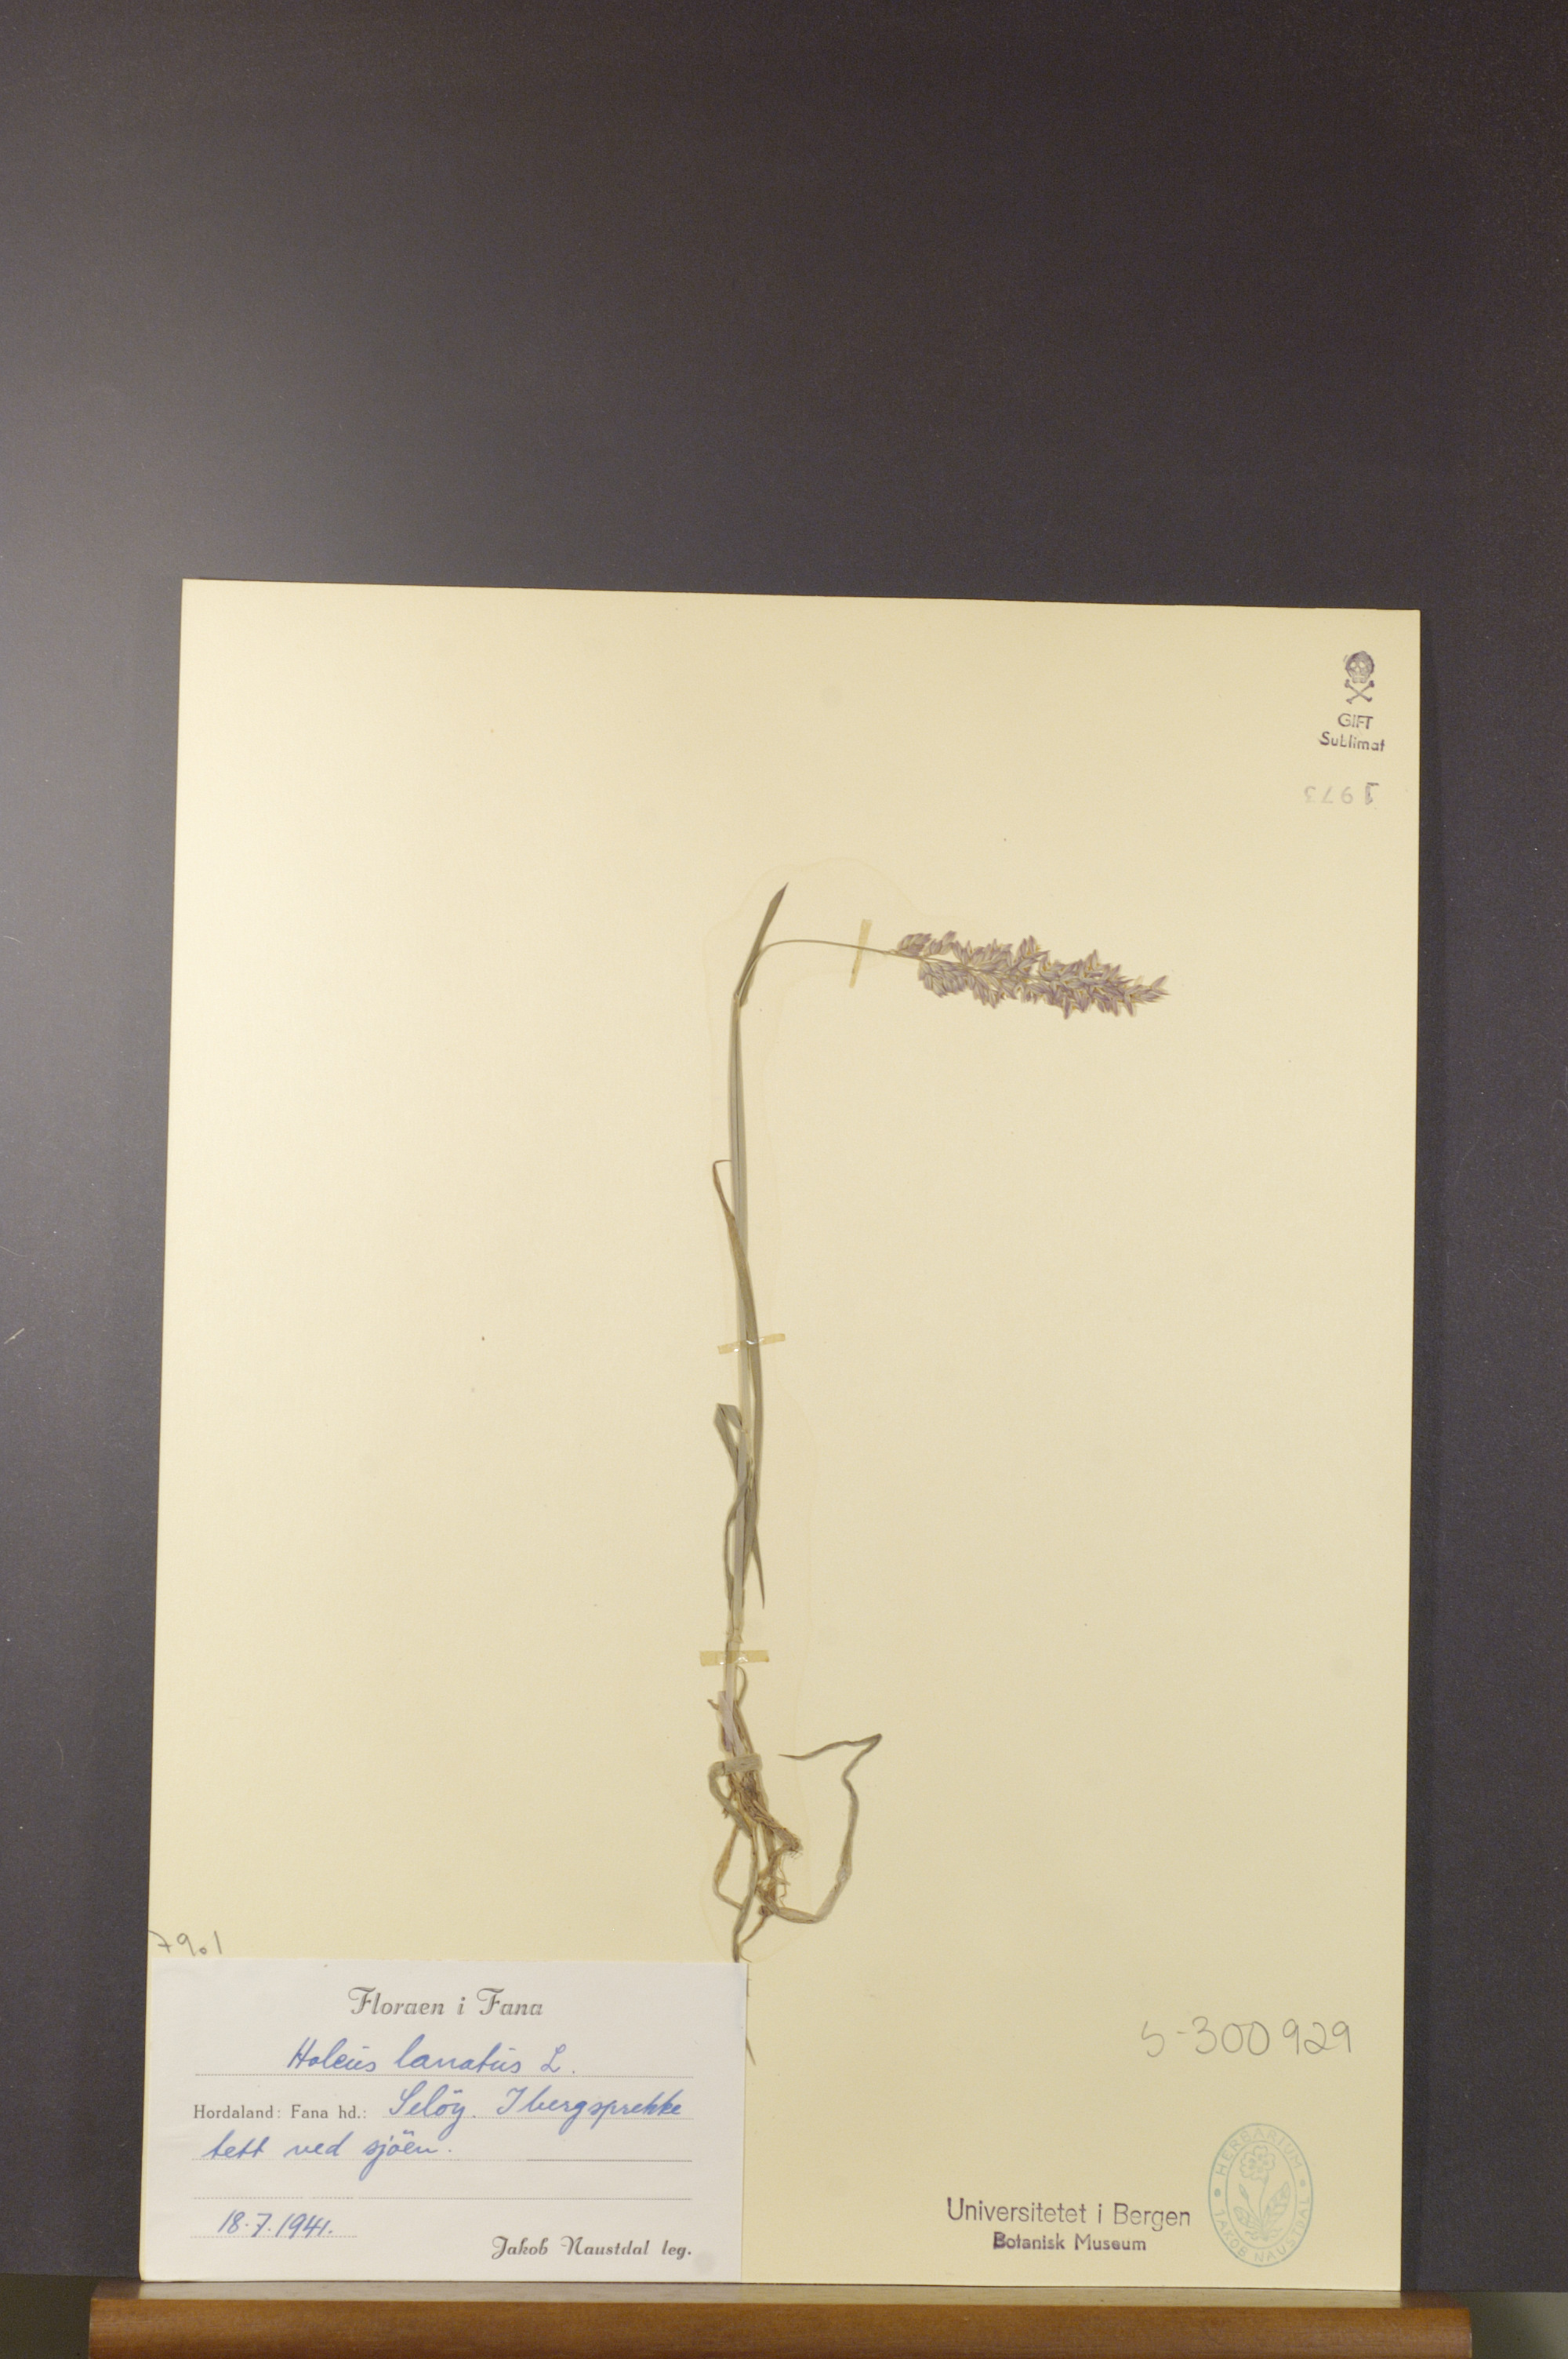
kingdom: Plantae
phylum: Tracheophyta
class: Liliopsida
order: Poales
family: Poaceae
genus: Holcus
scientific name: Holcus lanatus
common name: Yorkshire-fog
